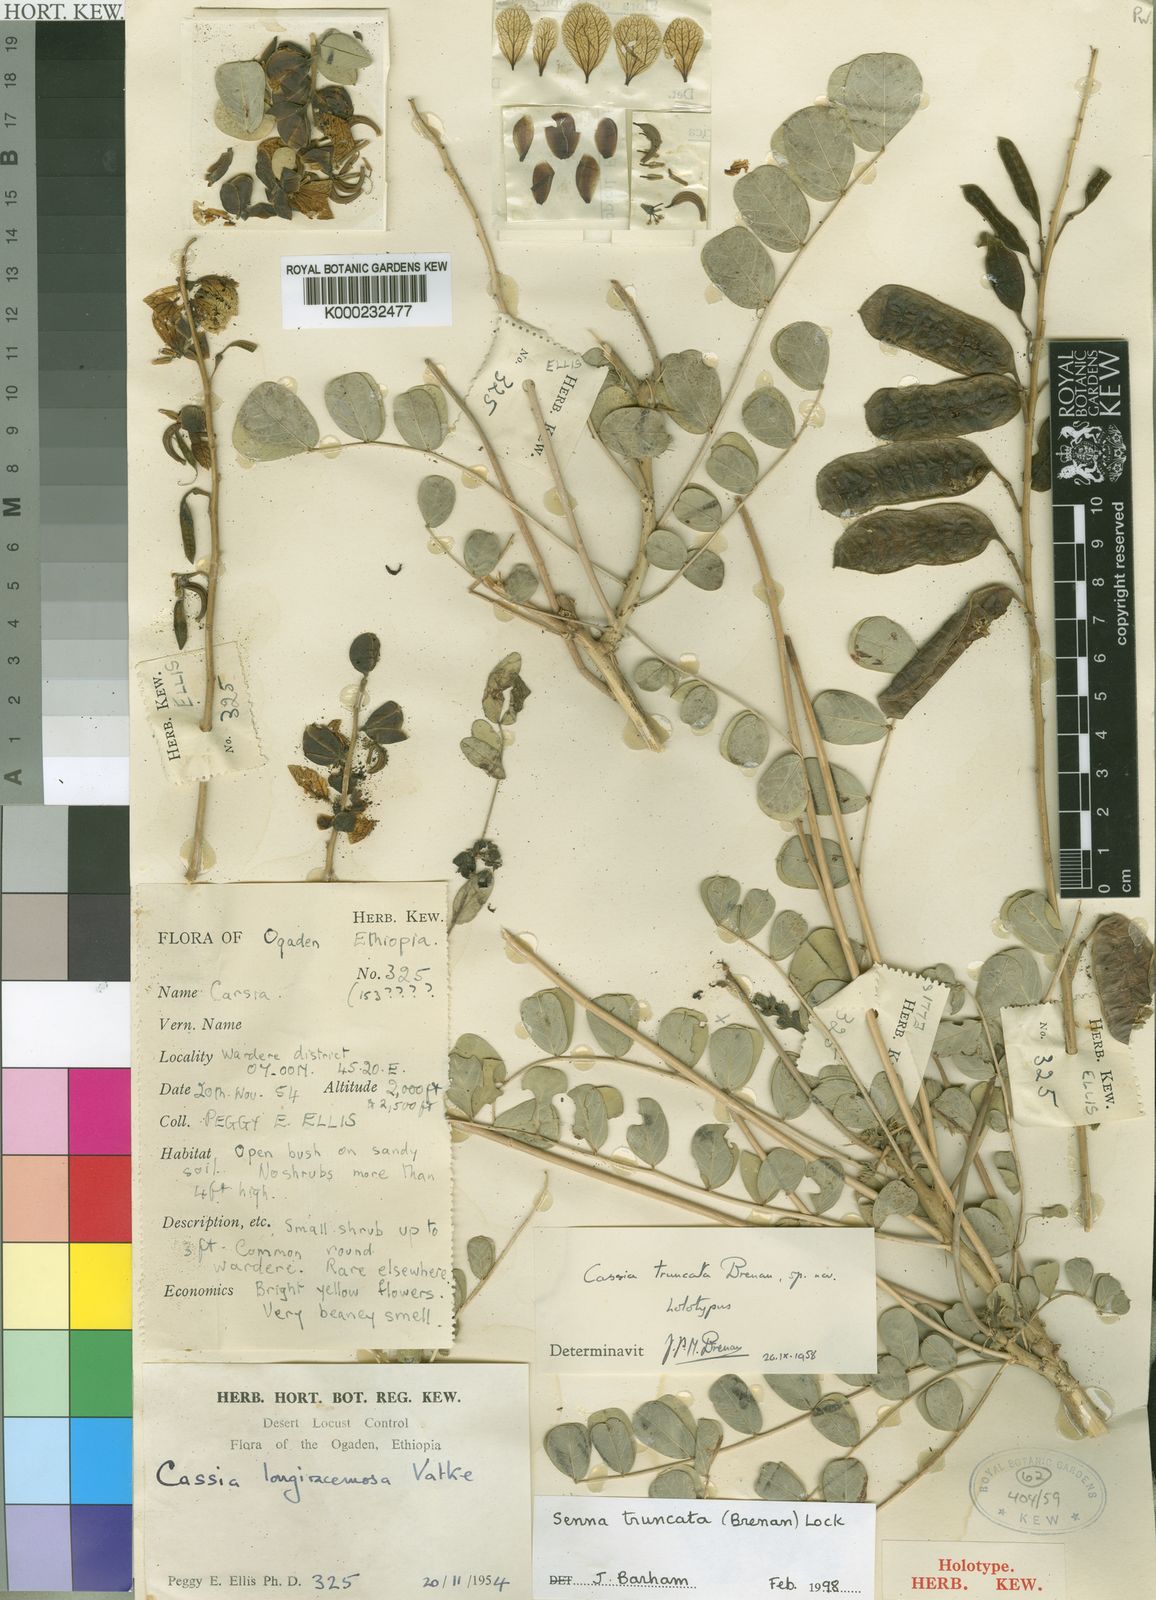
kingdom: Plantae
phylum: Tracheophyta
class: Magnoliopsida
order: Fabales
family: Fabaceae
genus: Senna
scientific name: Senna truncata
